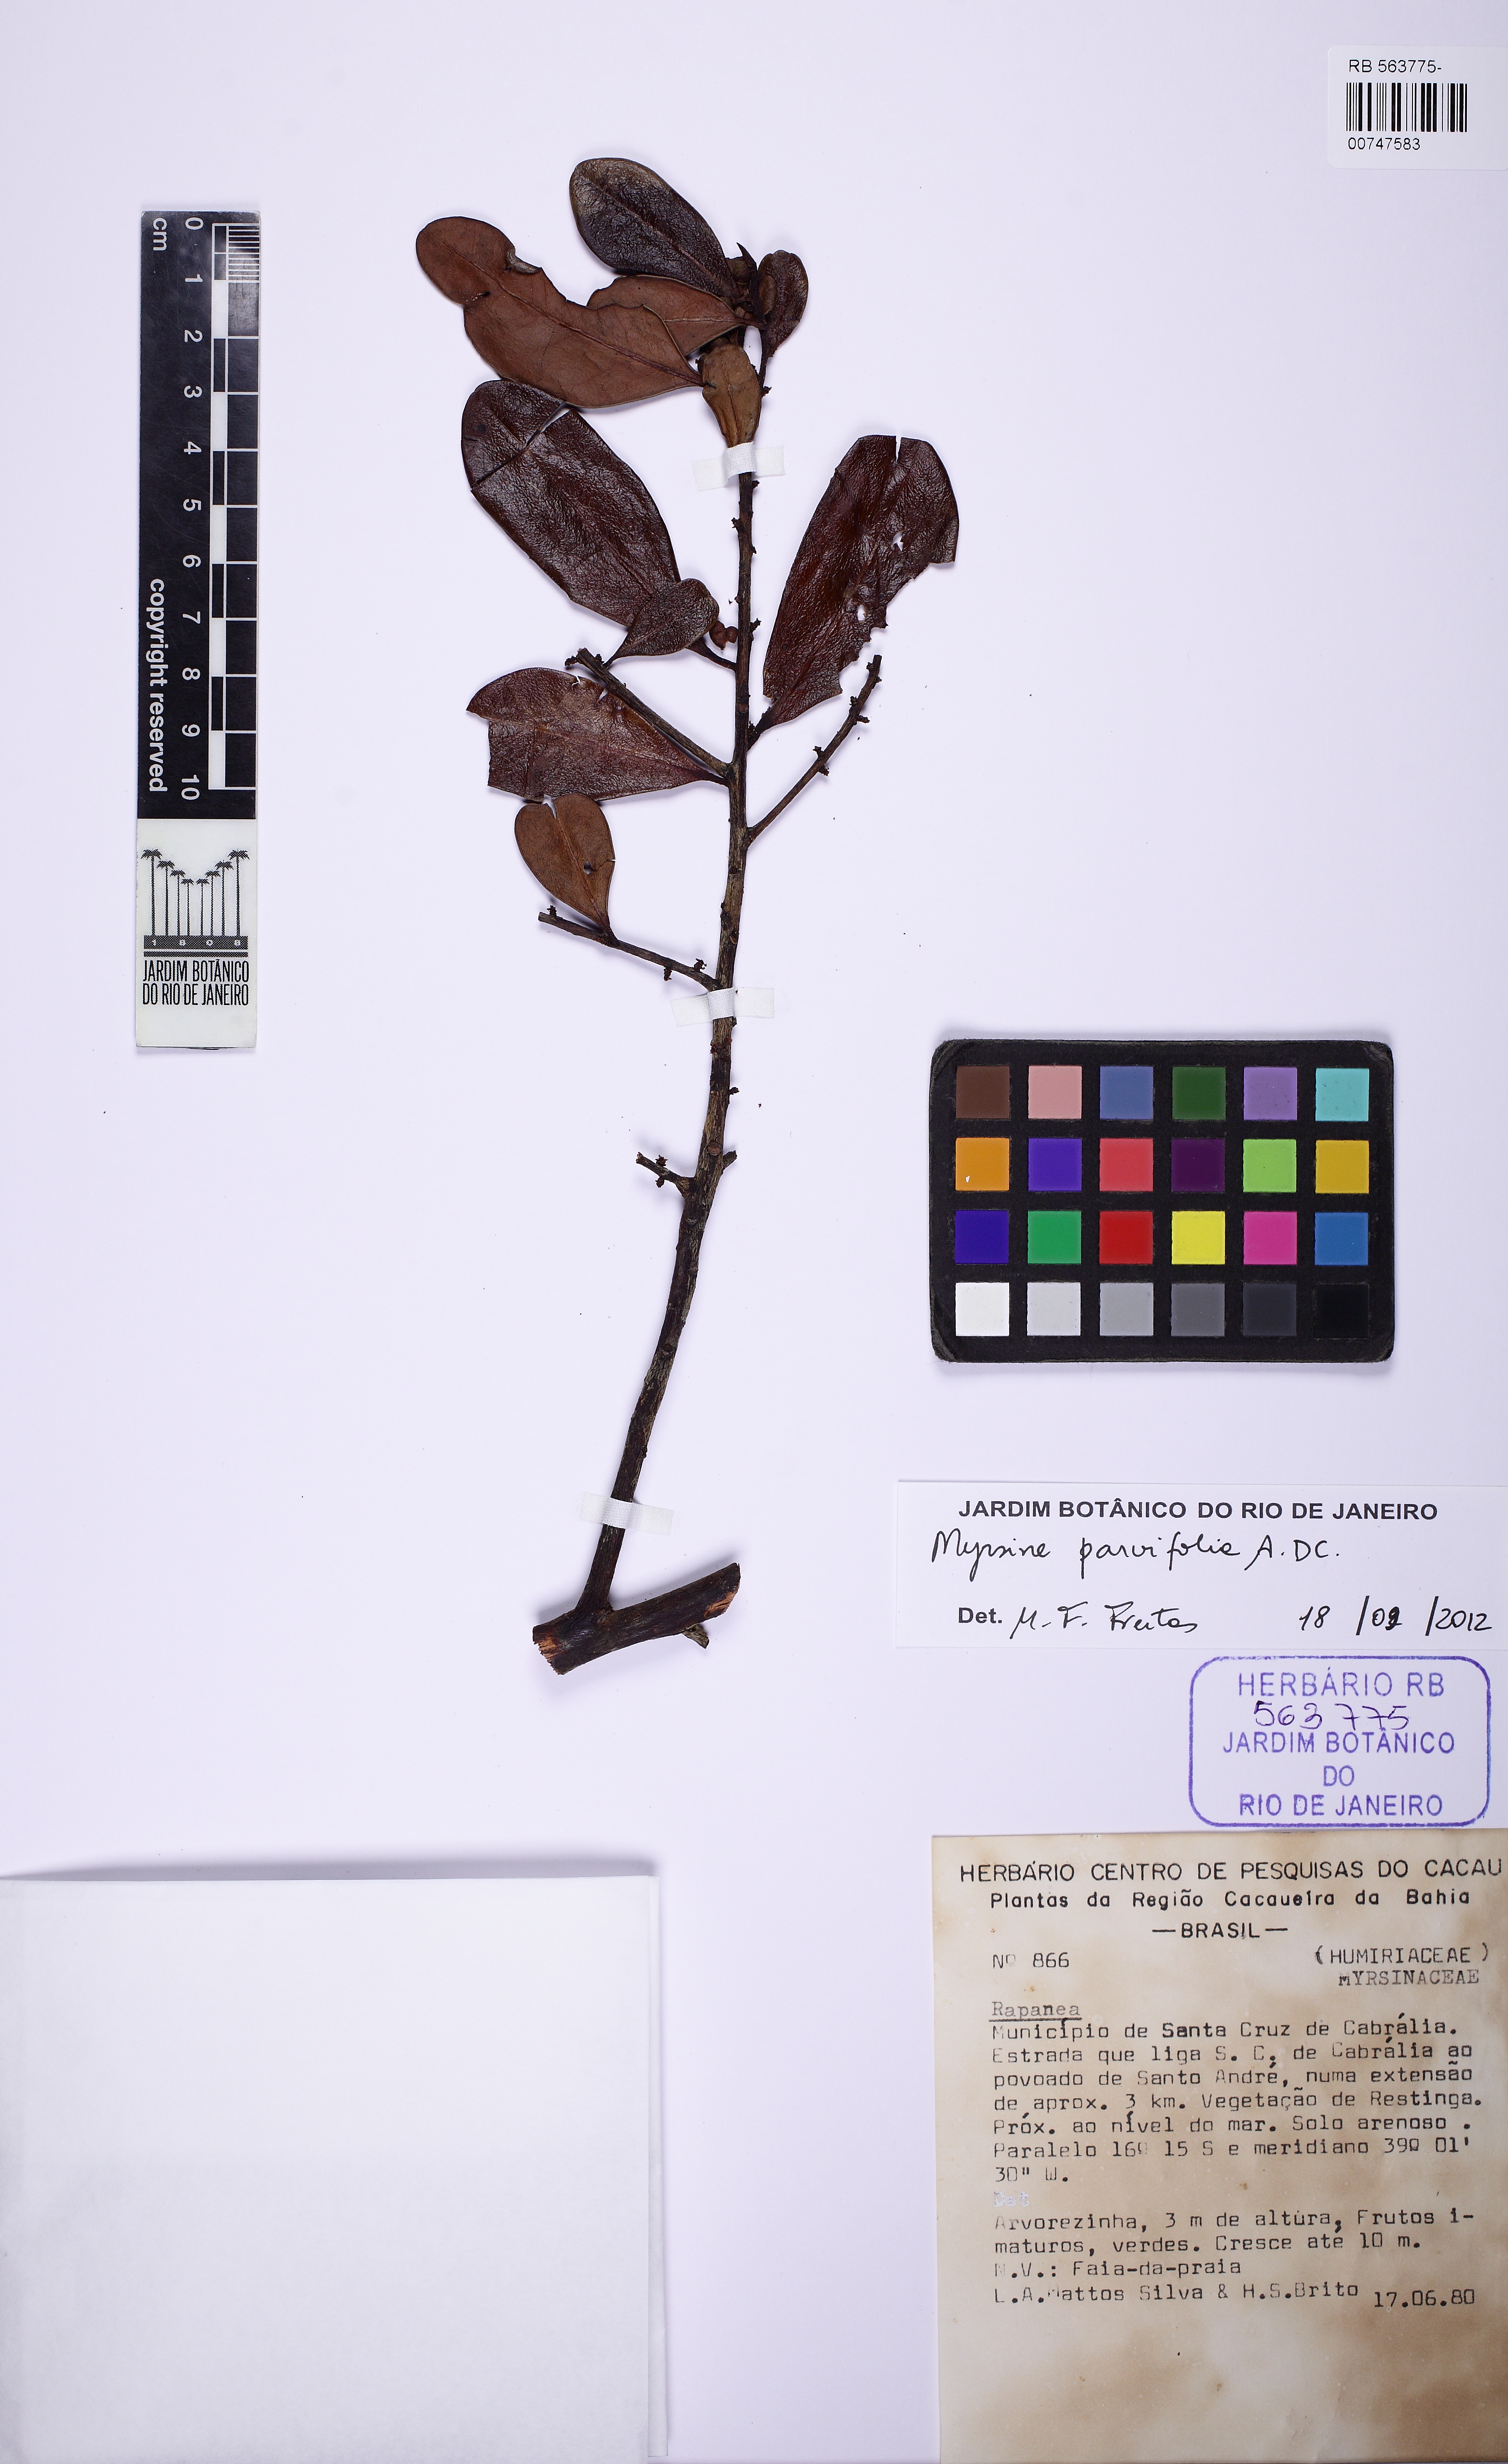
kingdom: Plantae
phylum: Tracheophyta
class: Magnoliopsida
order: Ericales
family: Primulaceae
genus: Myrsine
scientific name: Myrsine parvifolia
